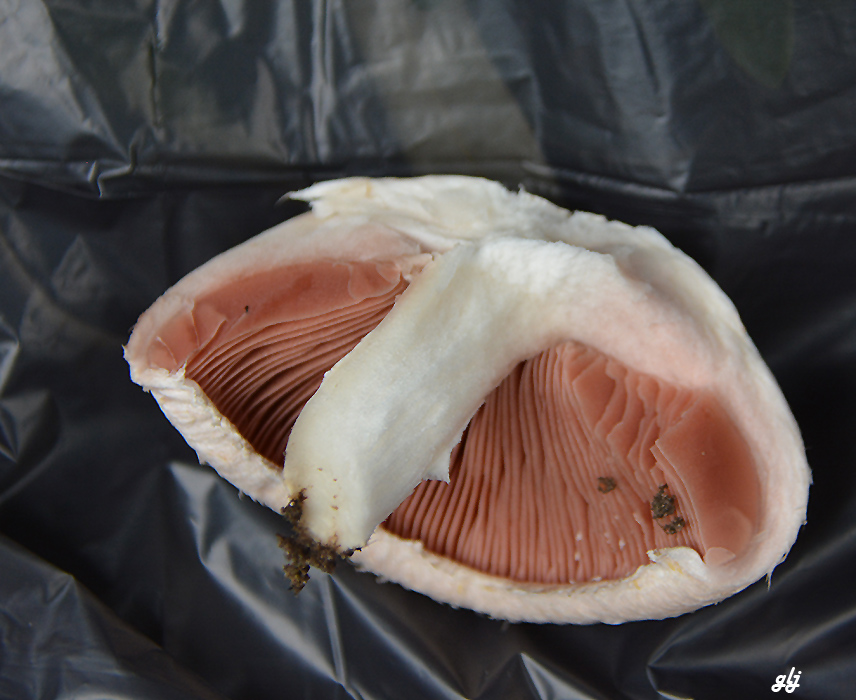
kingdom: Fungi
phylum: Basidiomycota
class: Agaricomycetes
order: Agaricales
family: Agaricaceae
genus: Agaricus
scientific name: Agaricus
